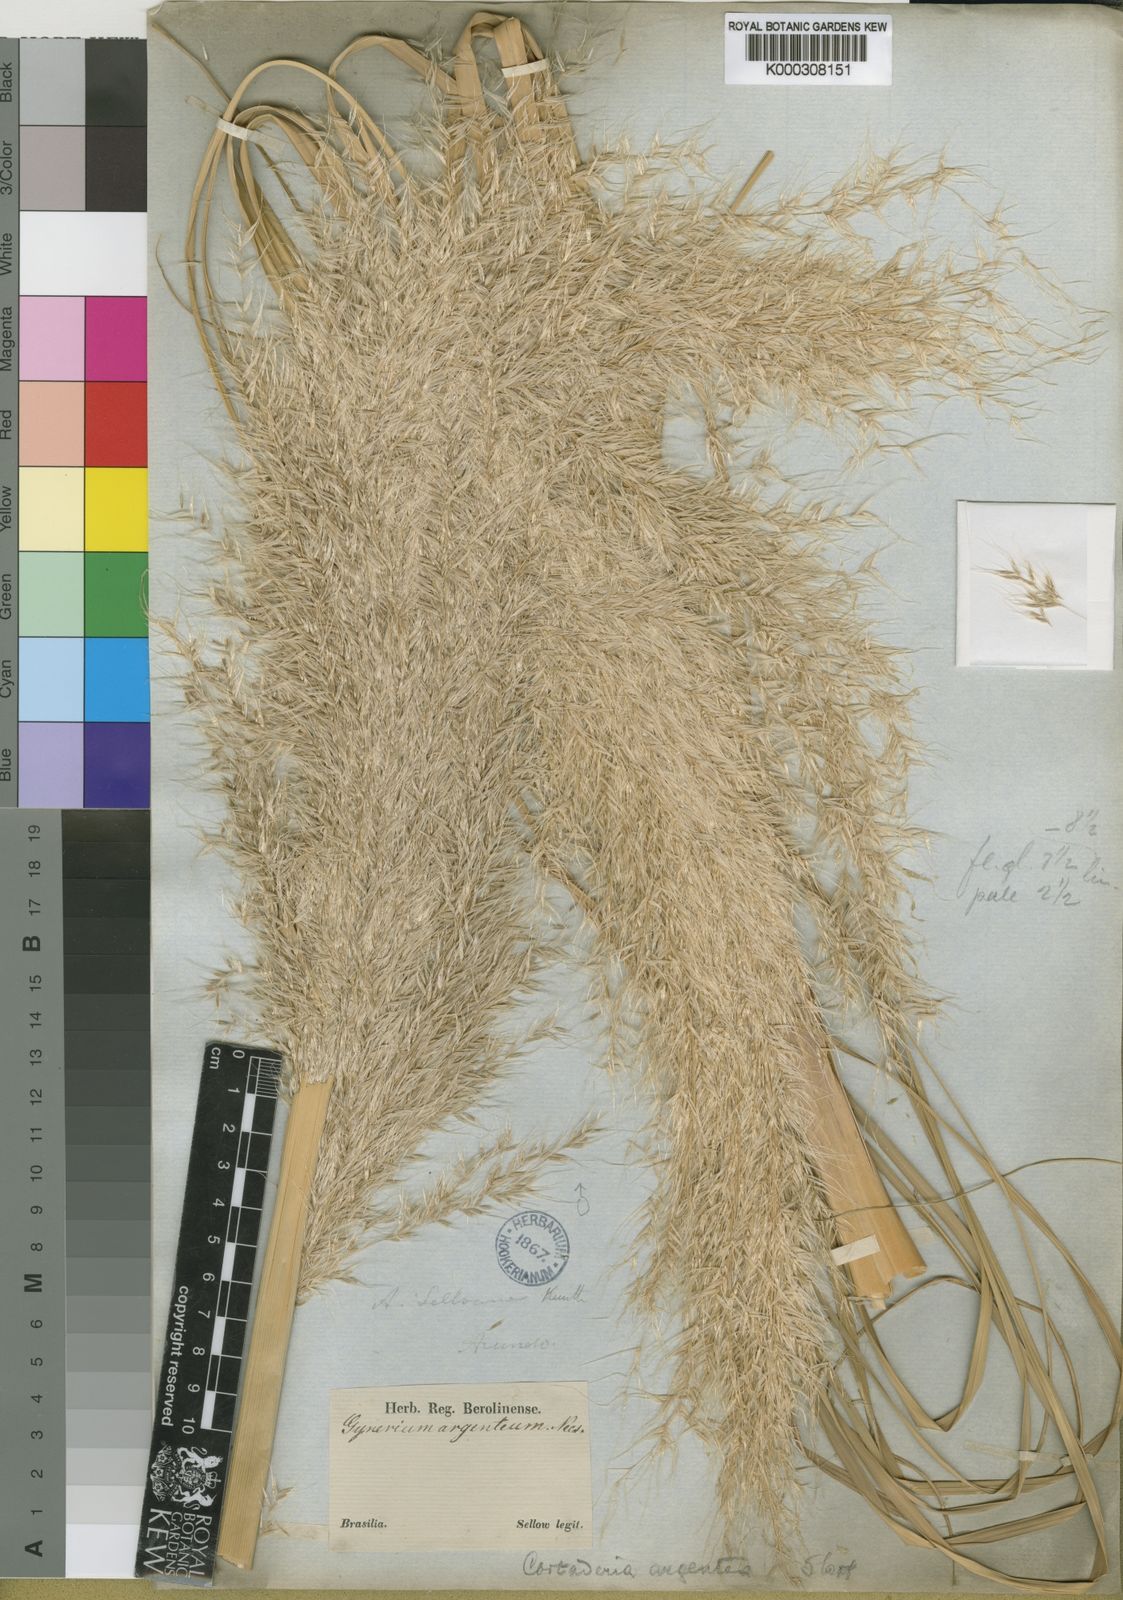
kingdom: Plantae
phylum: Tracheophyta
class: Liliopsida
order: Poales
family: Poaceae
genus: Cortaderia
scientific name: Cortaderia selloana
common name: Uruguayan pampas grass
